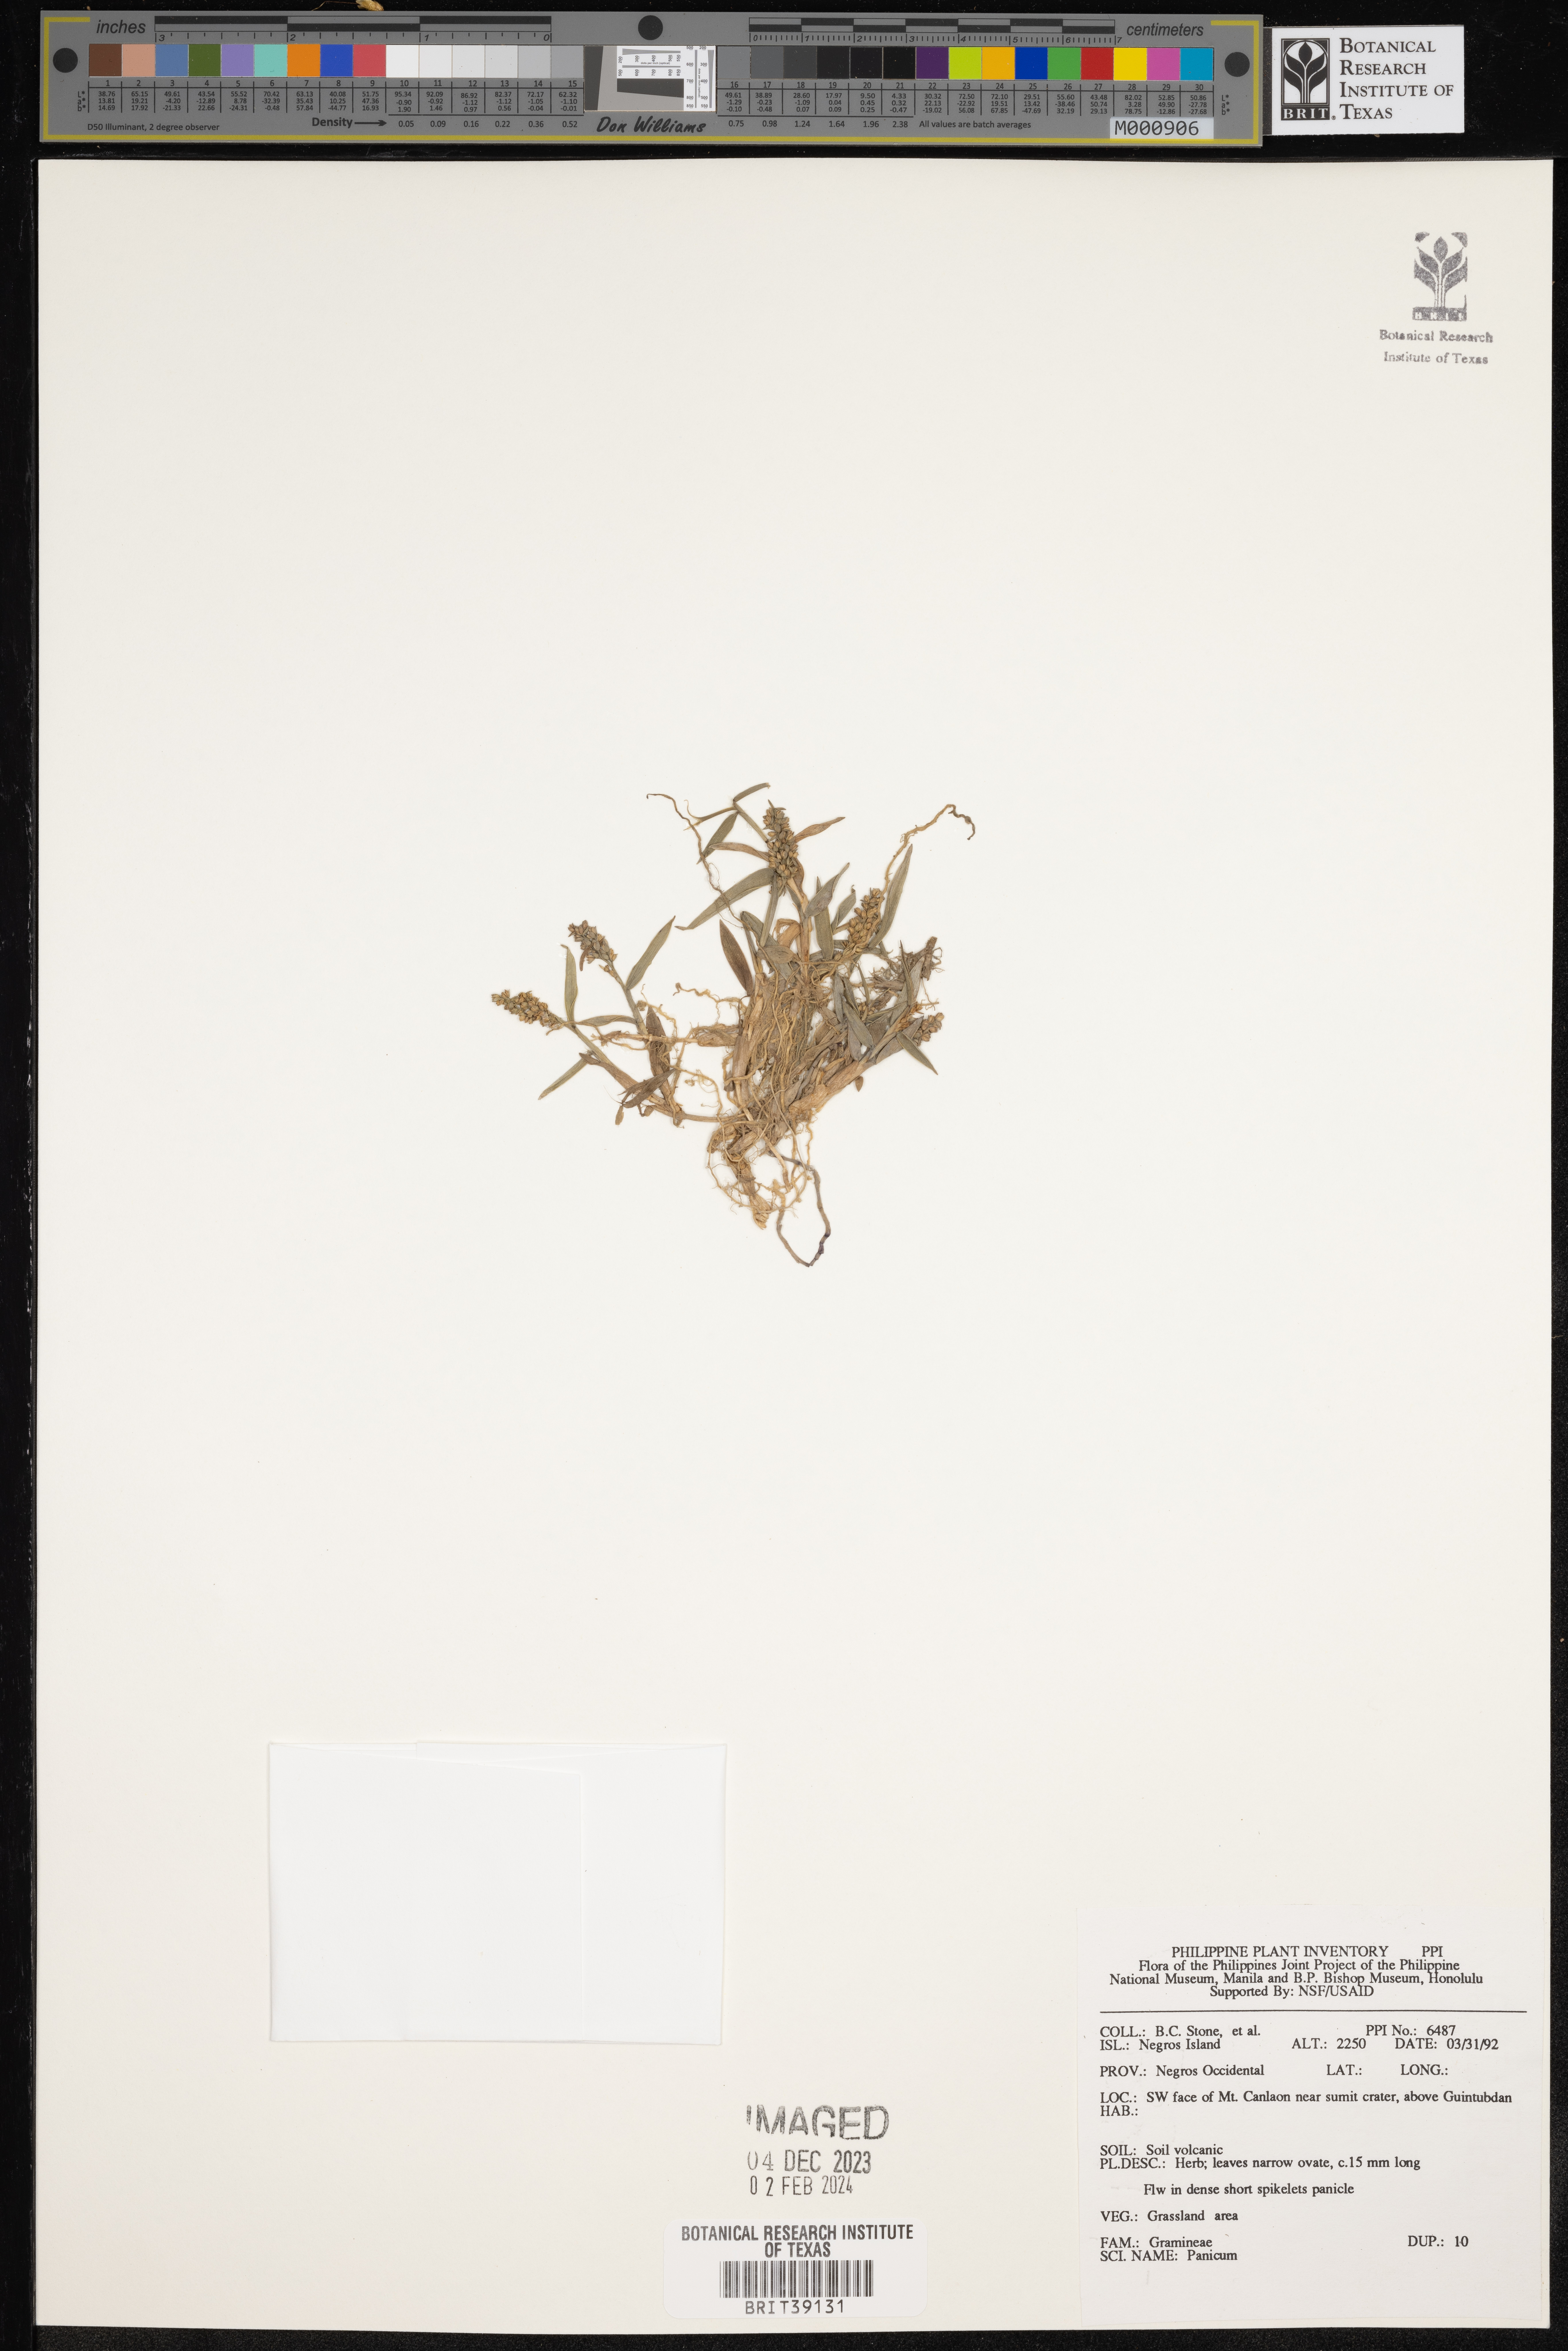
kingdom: Plantae
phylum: Tracheophyta
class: Liliopsida
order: Poales
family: Poaceae
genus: Panicum
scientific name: Panicum
